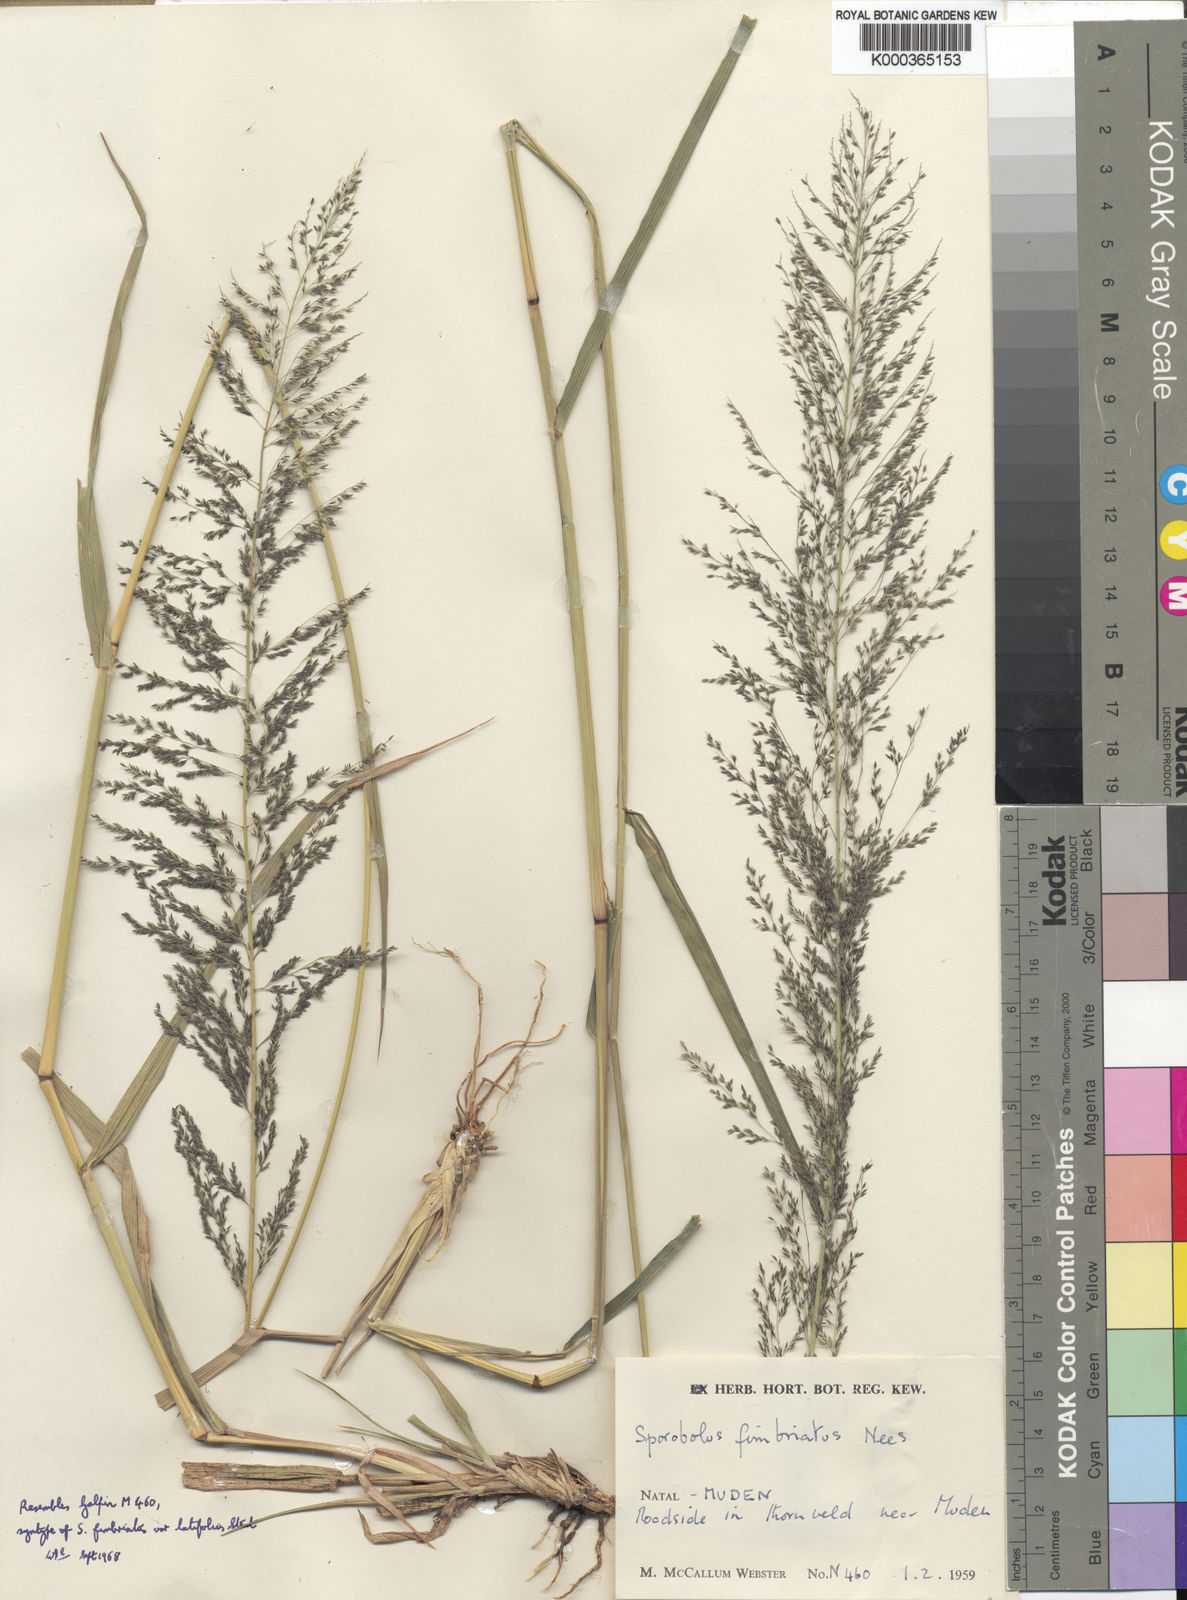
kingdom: Plantae
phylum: Tracheophyta
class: Liliopsida
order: Poales
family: Poaceae
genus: Sporobolus
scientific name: Sporobolus fimbriatus
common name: Fringed dropseed
